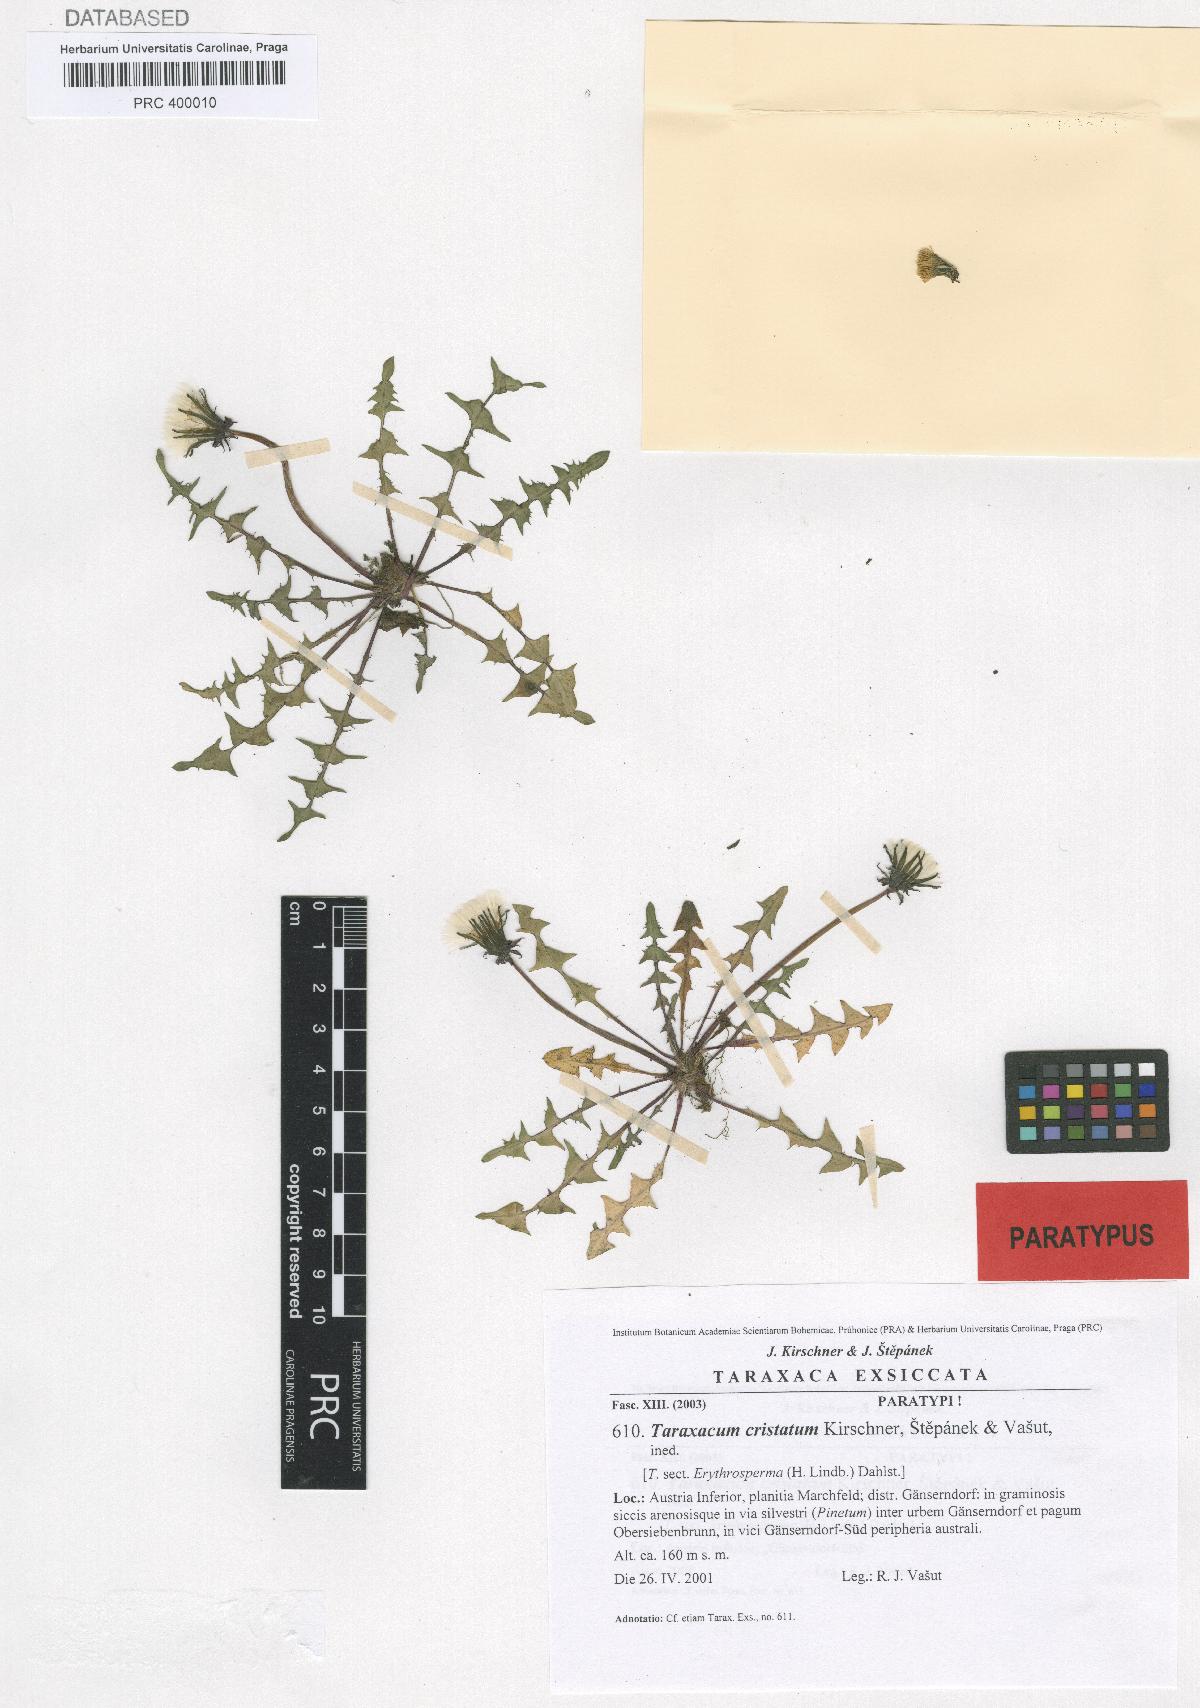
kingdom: Plantae
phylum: Tracheophyta
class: Magnoliopsida
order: Asterales
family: Asteraceae
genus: Taraxacum
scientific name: Taraxacum cristatum
